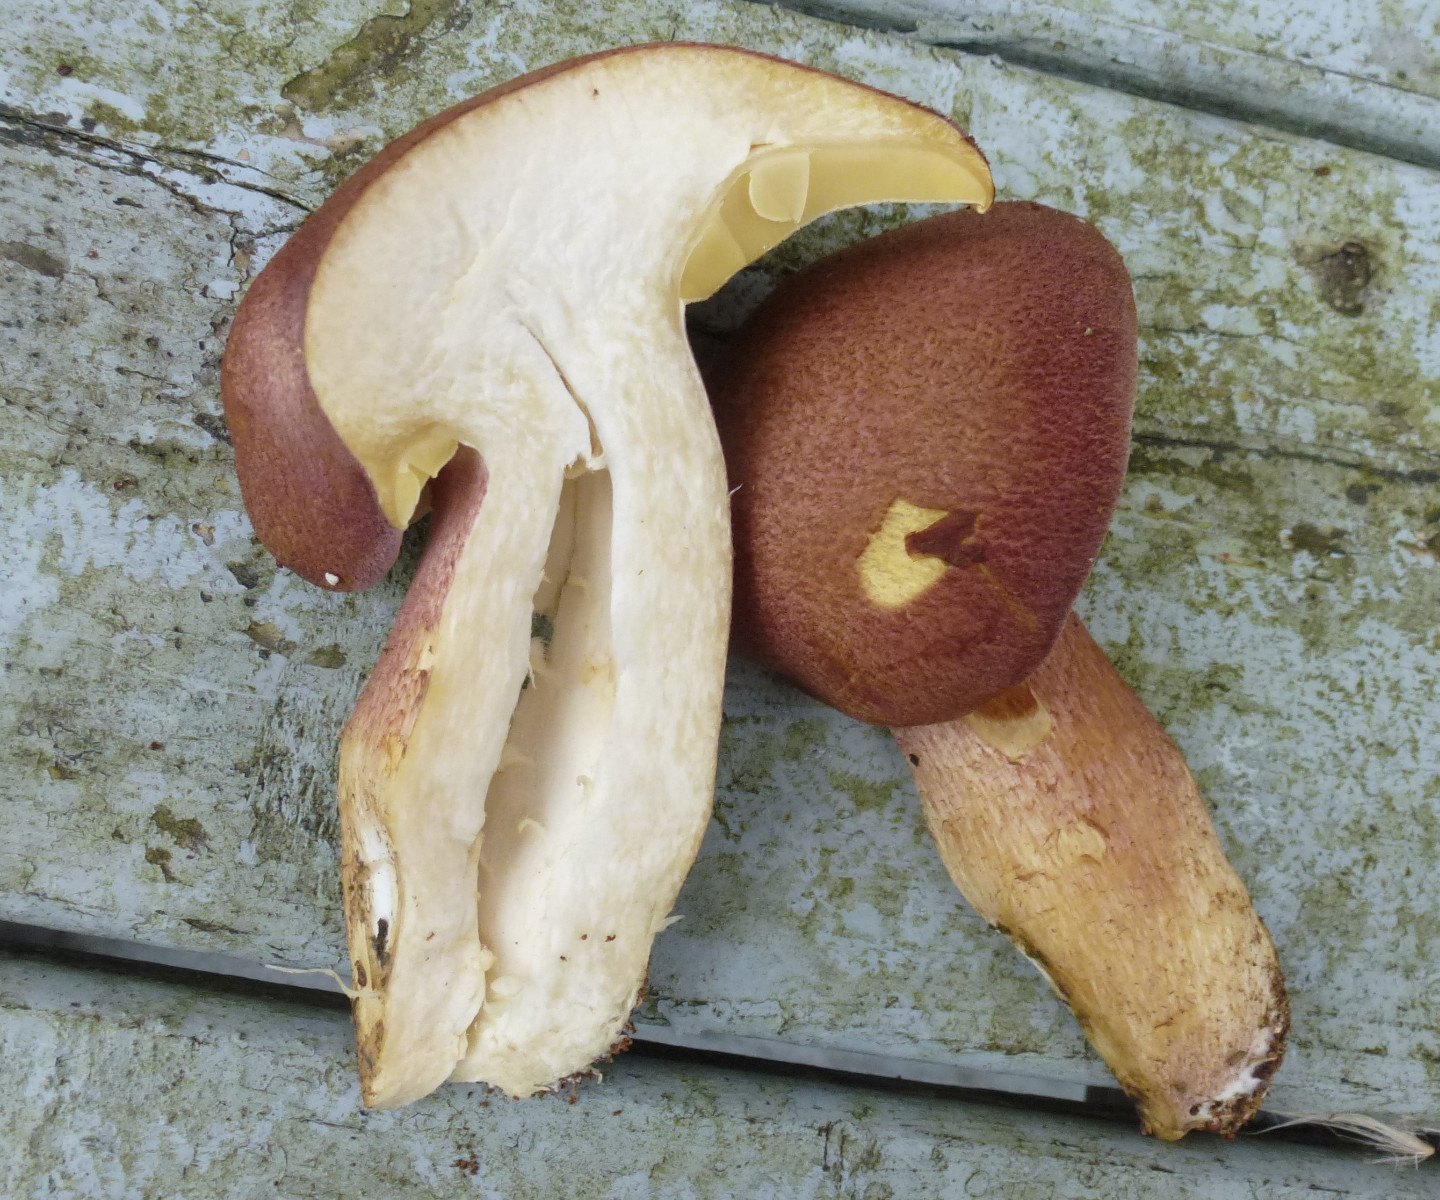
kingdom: Fungi
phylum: Basidiomycota
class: Agaricomycetes
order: Agaricales
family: Tricholomataceae
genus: Tricholomopsis
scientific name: Tricholomopsis rutilans
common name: purpur-væbnerhat
